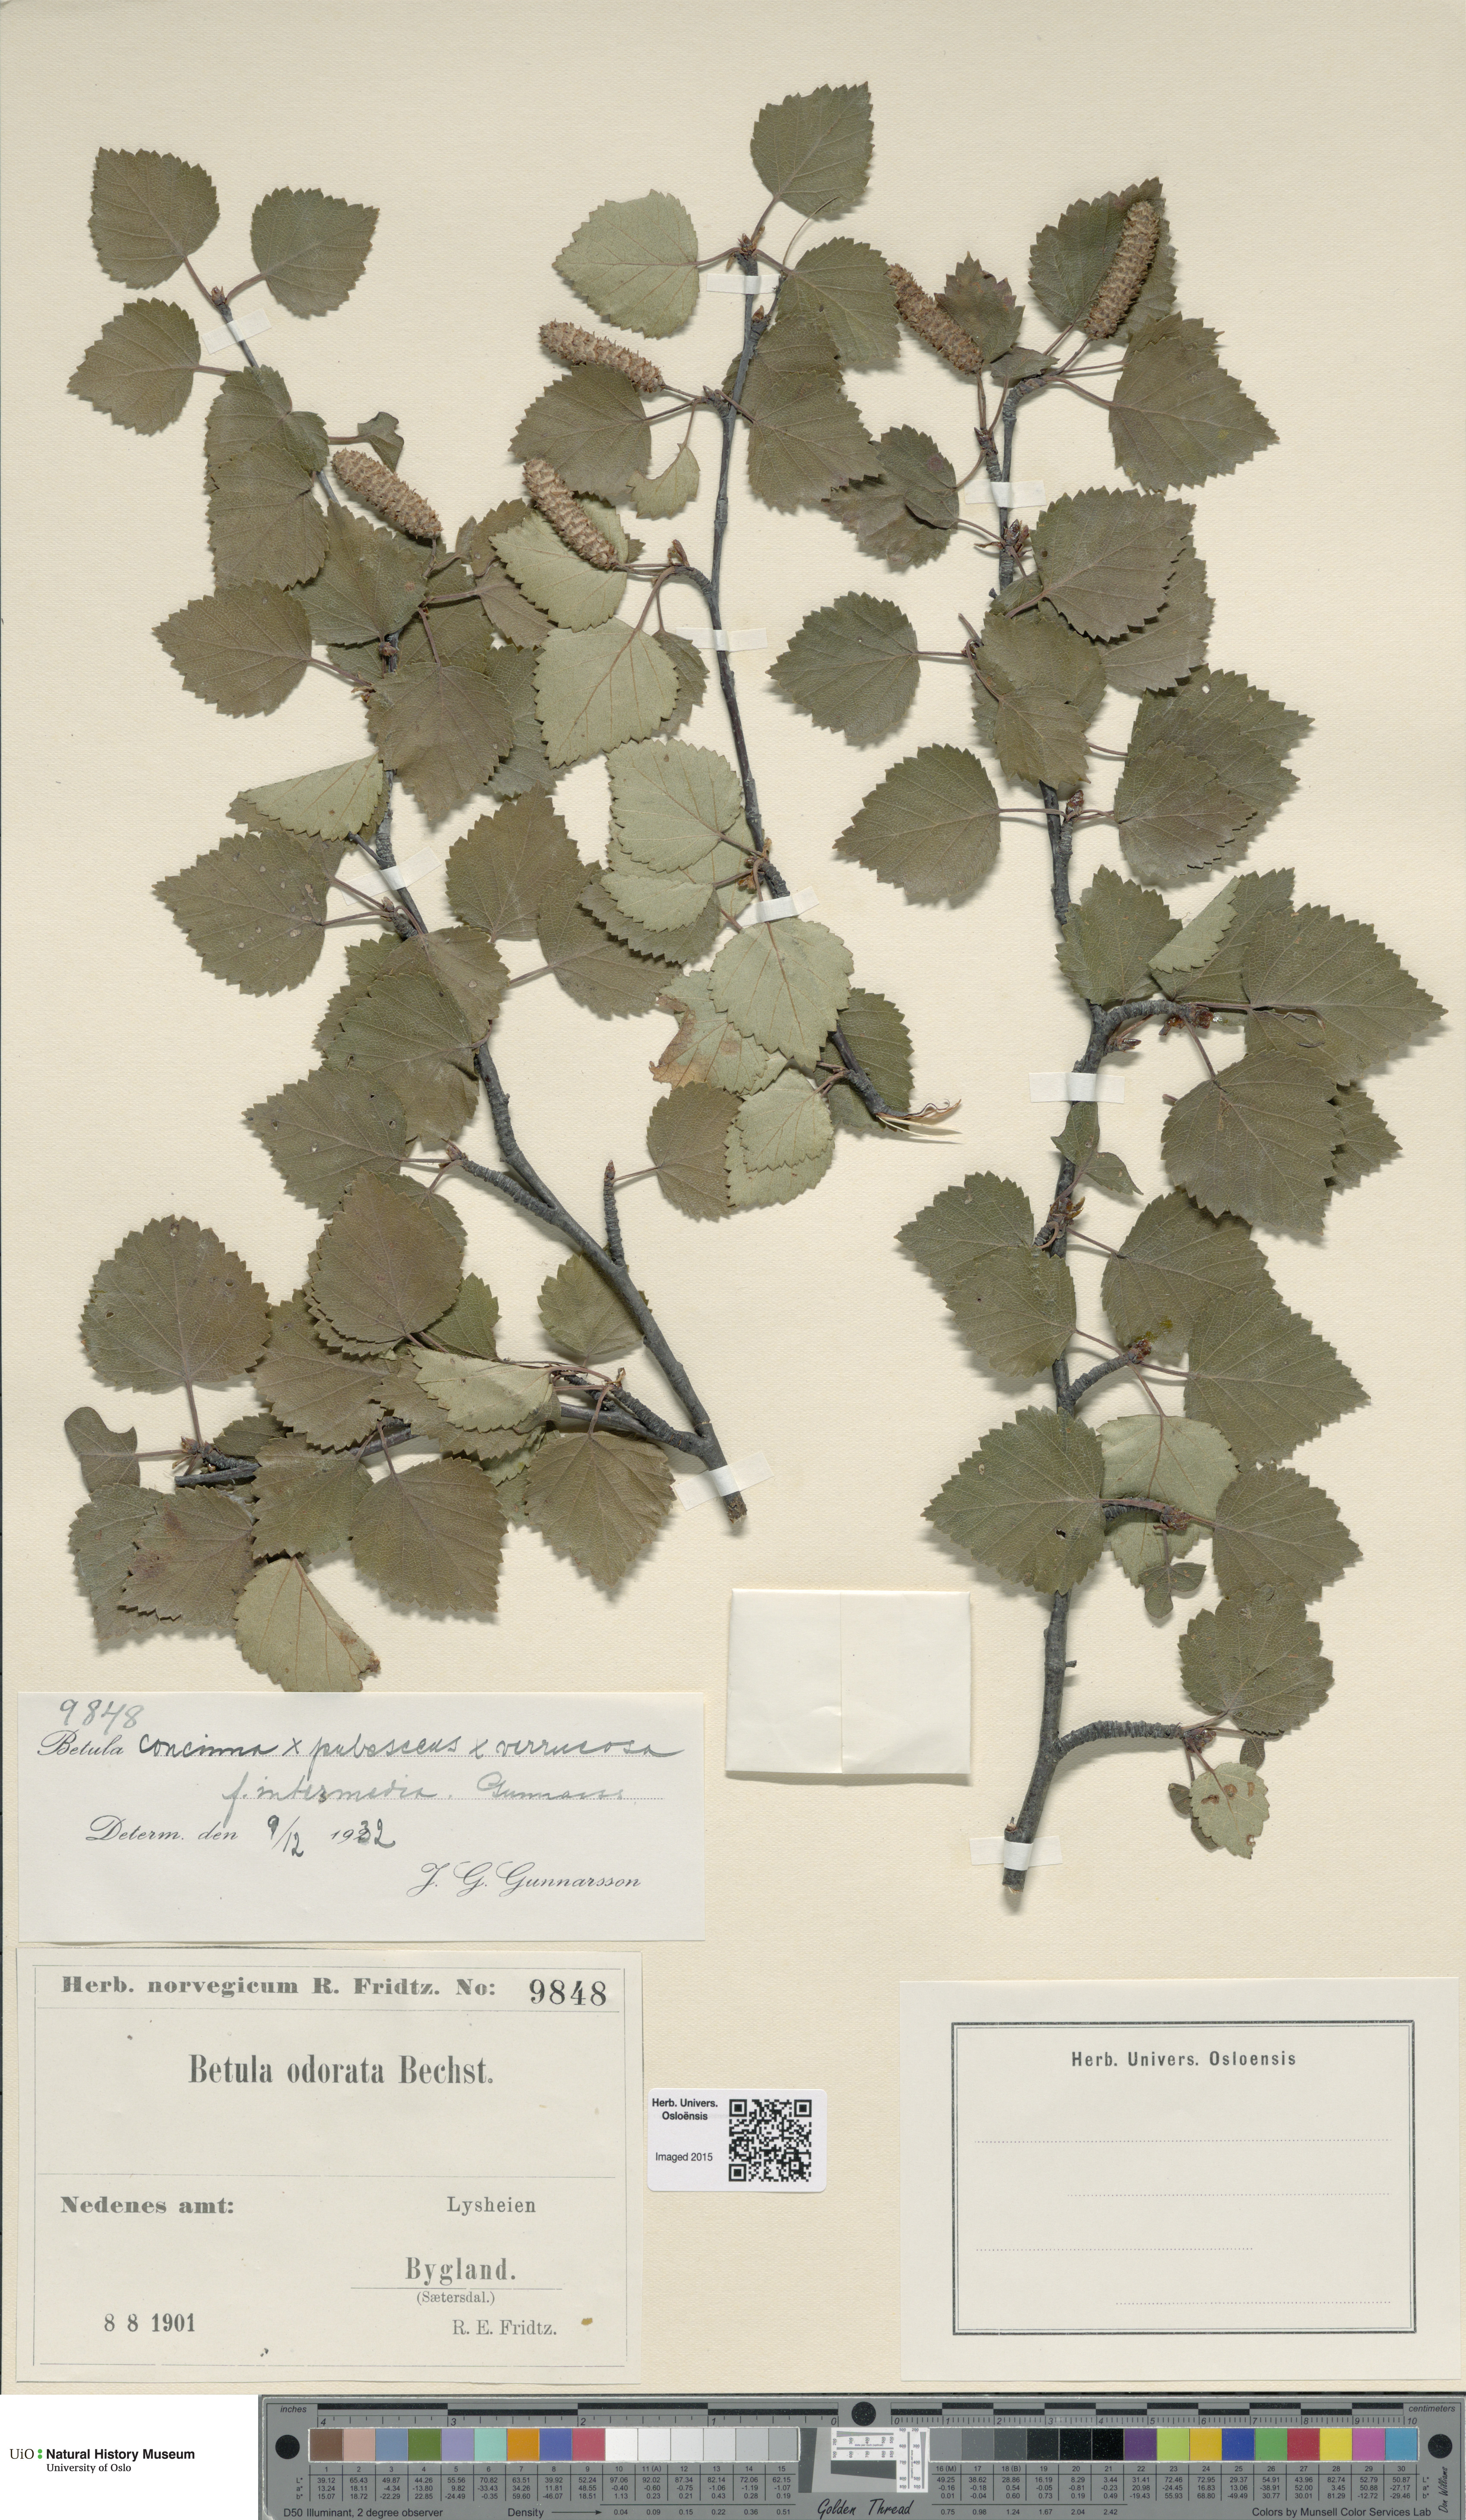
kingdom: Plantae
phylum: Tracheophyta
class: Magnoliopsida
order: Fagales
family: Betulaceae
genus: Betula
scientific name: Betula pubescens
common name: Downy birch
